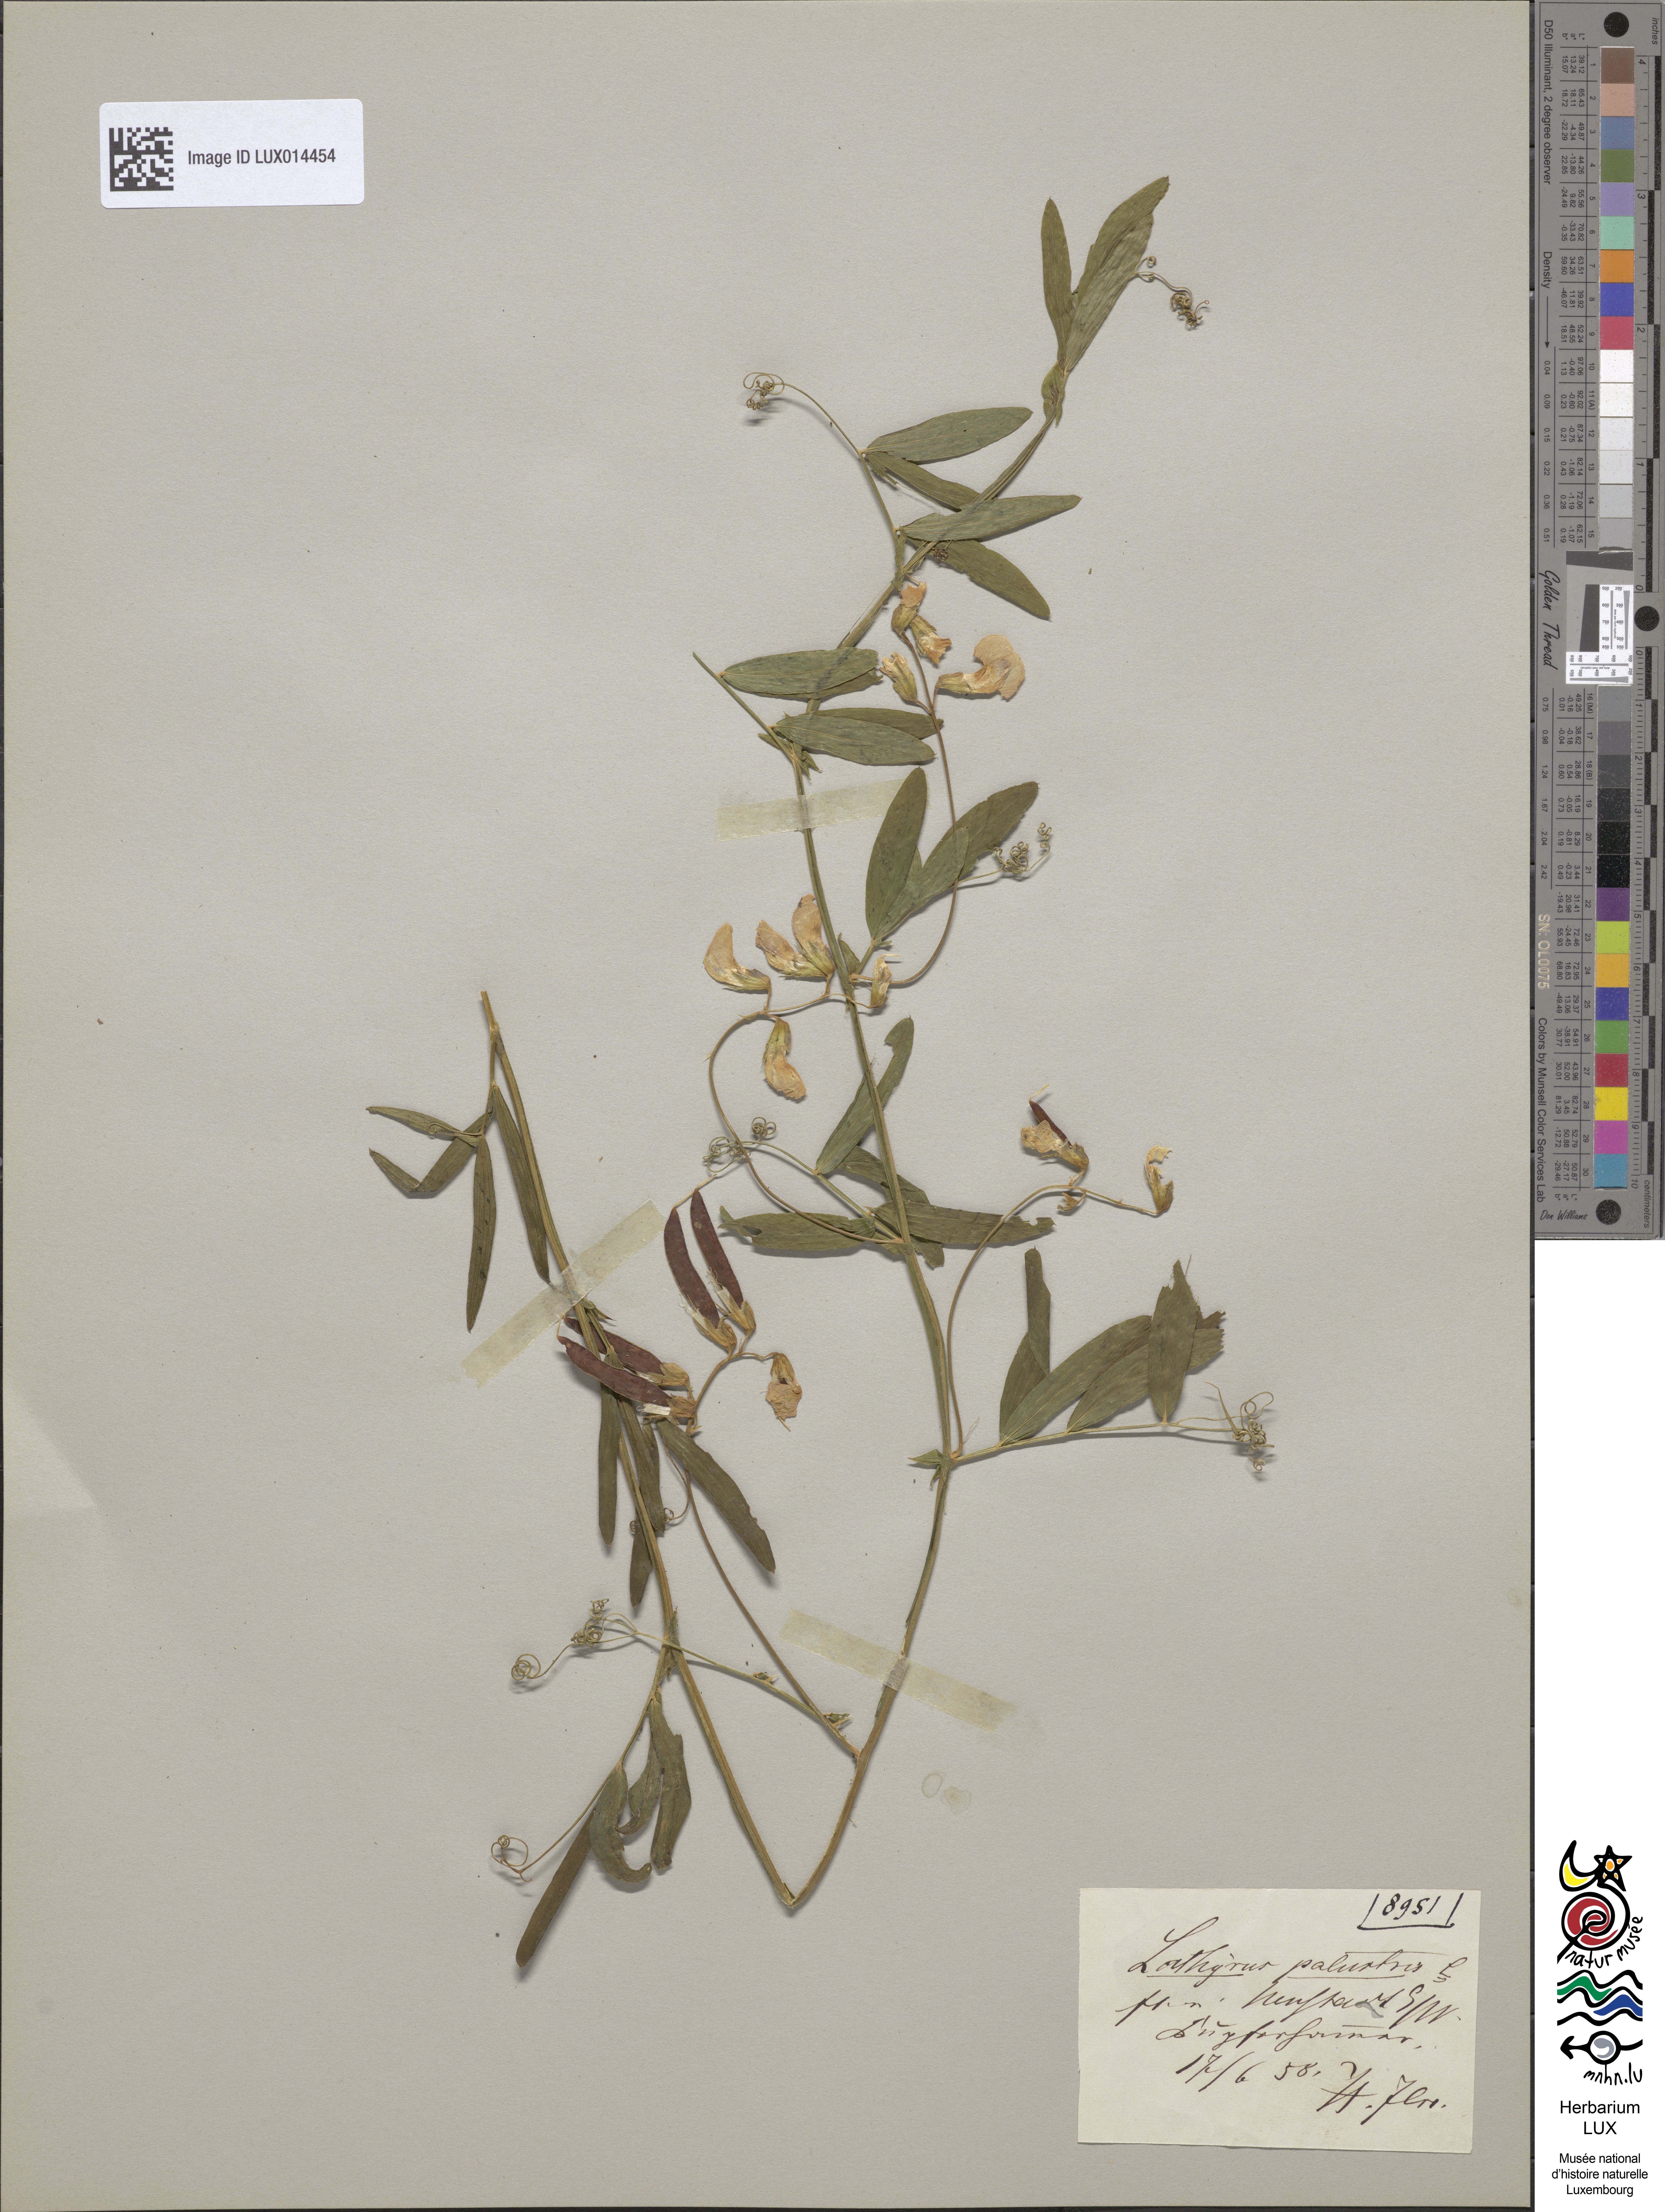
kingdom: Plantae
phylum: Tracheophyta
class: Magnoliopsida
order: Fabales
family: Fabaceae
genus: Lathyrus
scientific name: Lathyrus palustris
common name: Marsh pea
